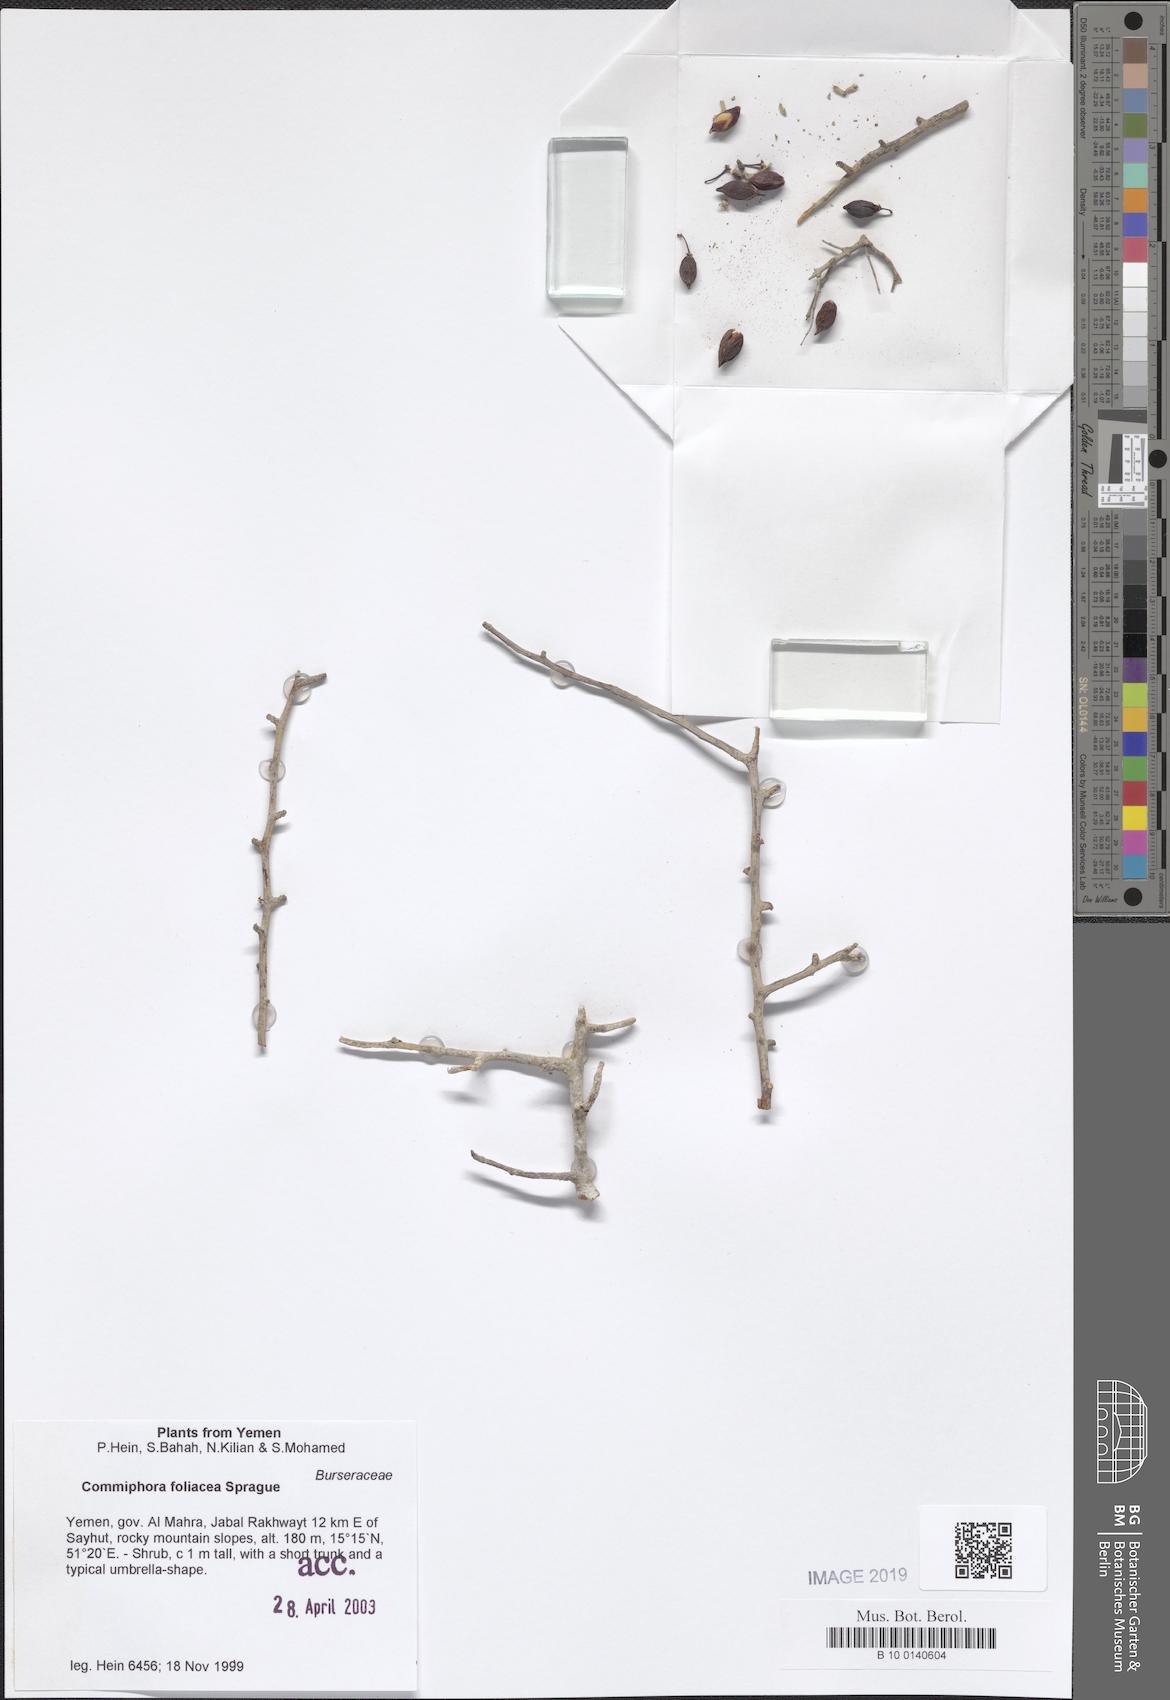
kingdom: Plantae
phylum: Tracheophyta
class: Magnoliopsida
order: Sapindales
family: Burseraceae
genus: Commiphora
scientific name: Commiphora foliacea
